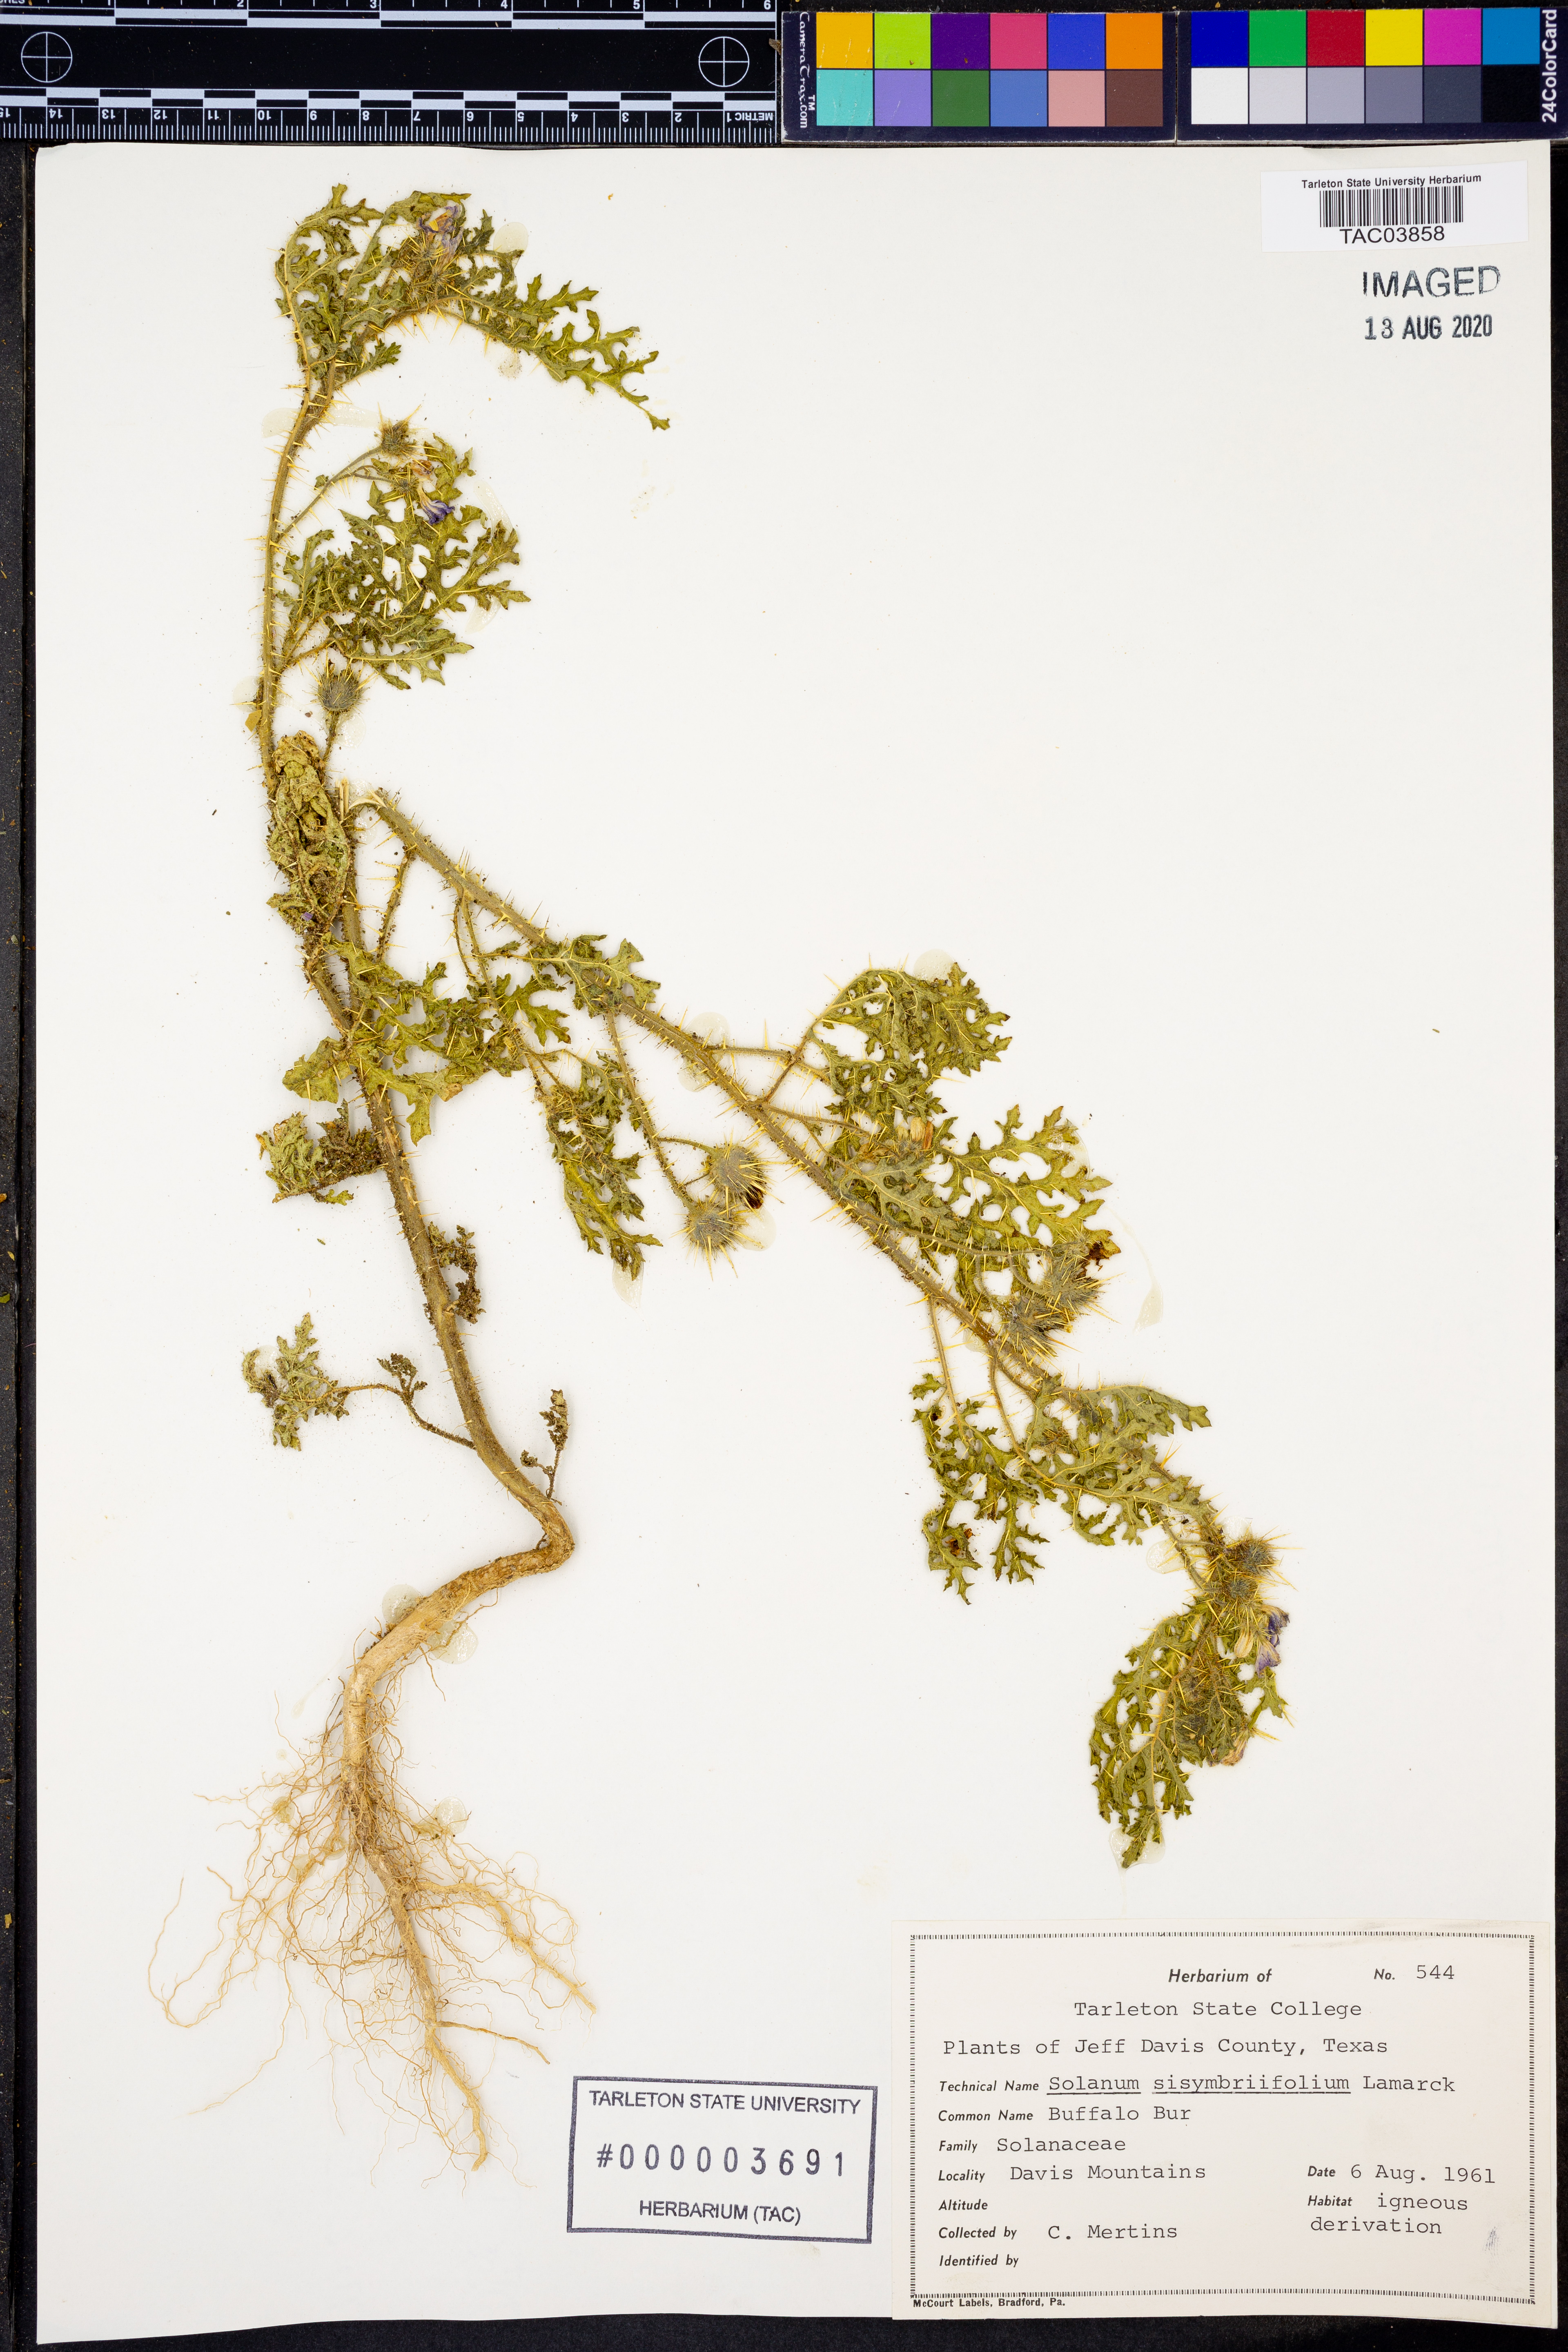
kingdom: Plantae
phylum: Tracheophyta
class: Magnoliopsida
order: Solanales
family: Solanaceae
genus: Solanum
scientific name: Solanum sisymbriifolium
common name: Red buffalo-bur
